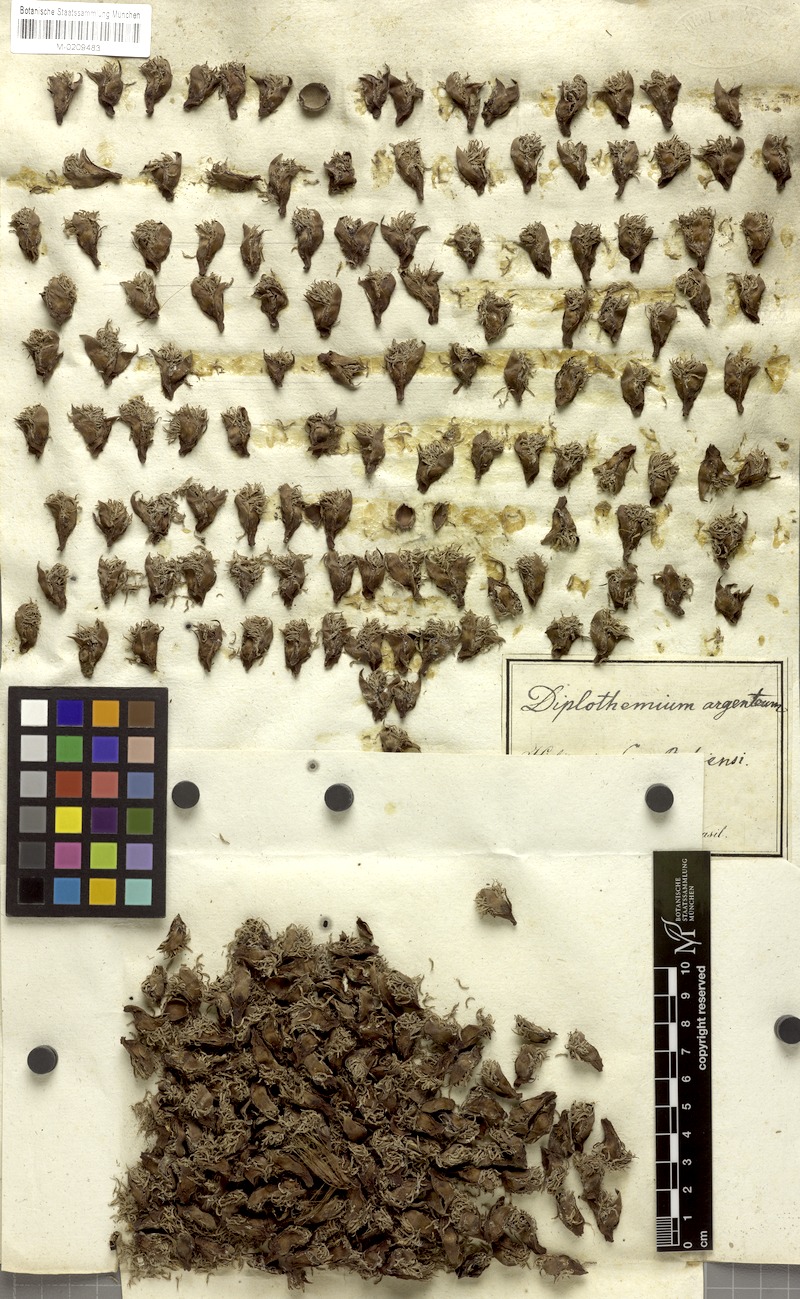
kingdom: Plantae
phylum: Tracheophyta
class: Liliopsida
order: Arecales
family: Arecaceae
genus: Allagoptera
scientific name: Allagoptera caudescens
